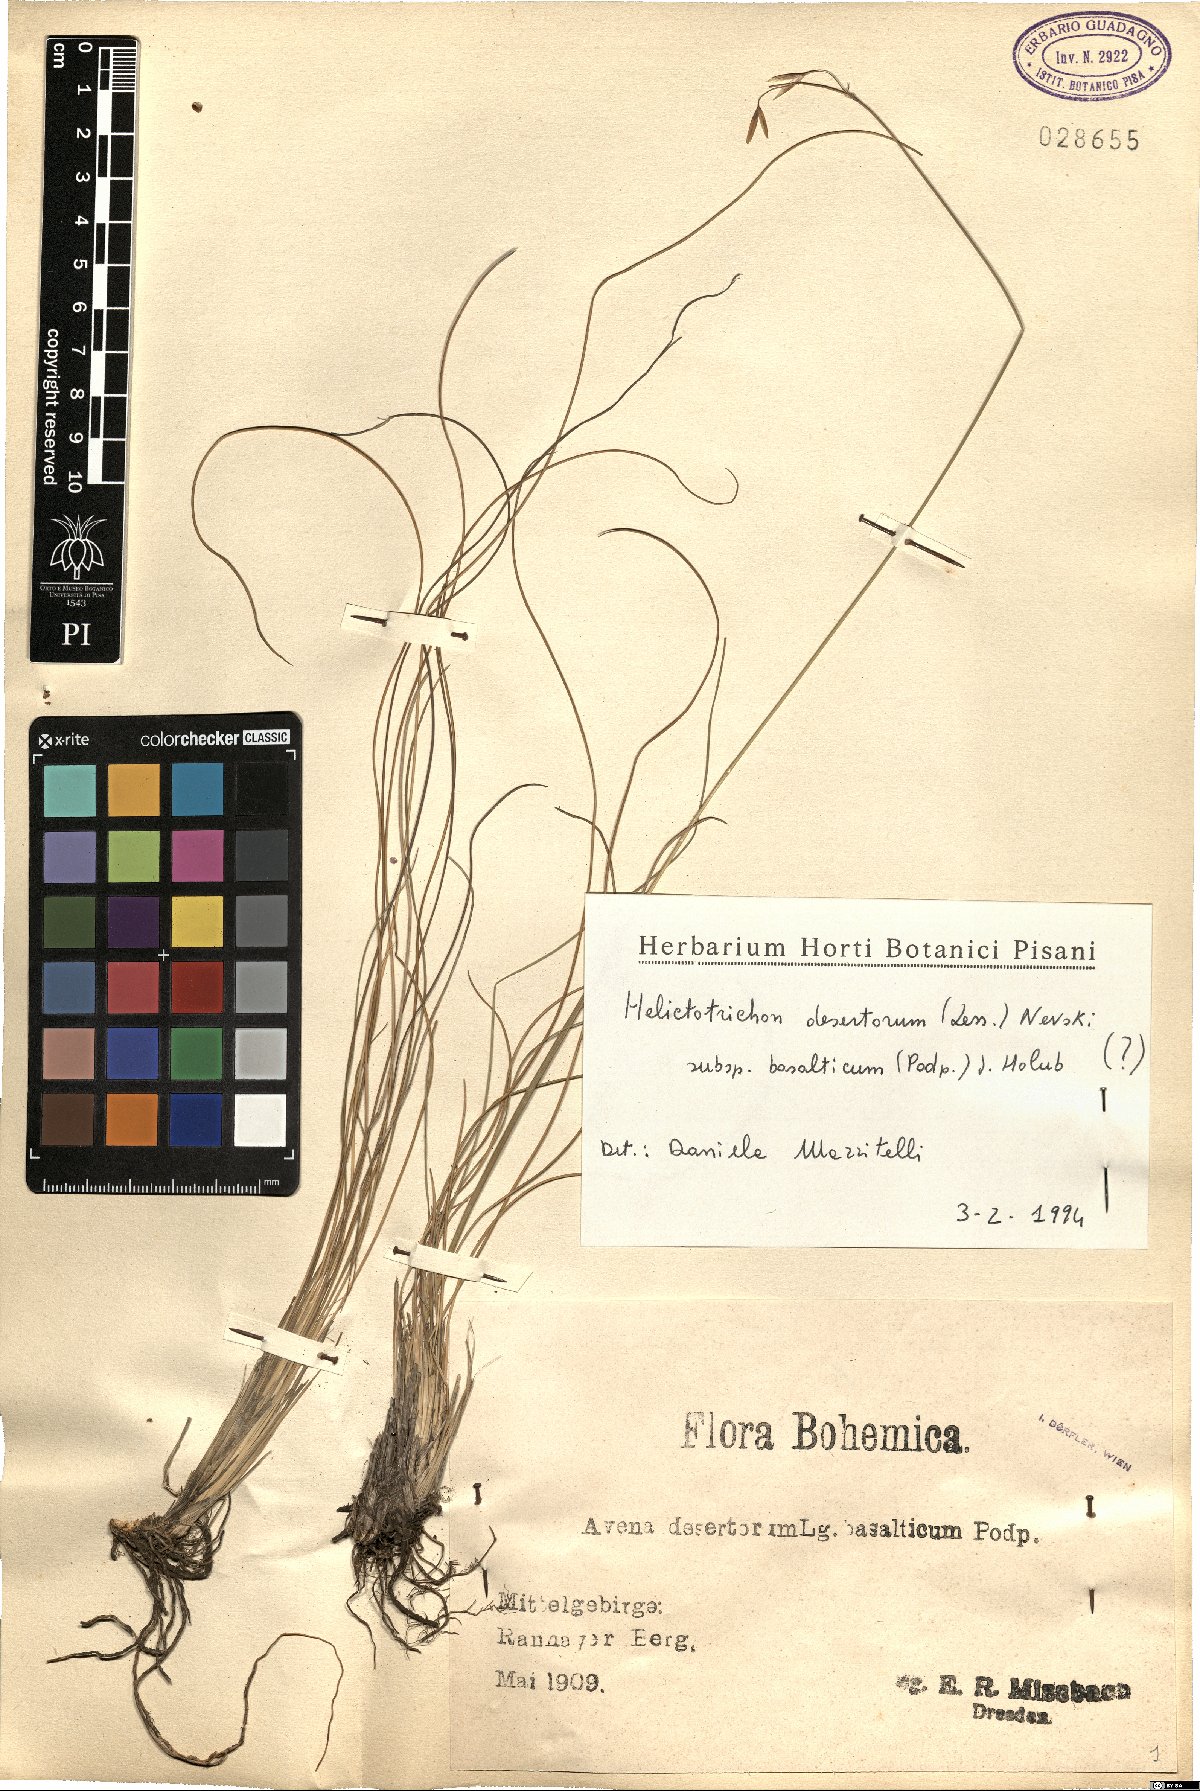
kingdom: Plantae
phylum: Tracheophyta
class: Liliopsida
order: Poales
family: Poaceae
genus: Helictotrichon
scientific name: Helictotrichon desertorum
